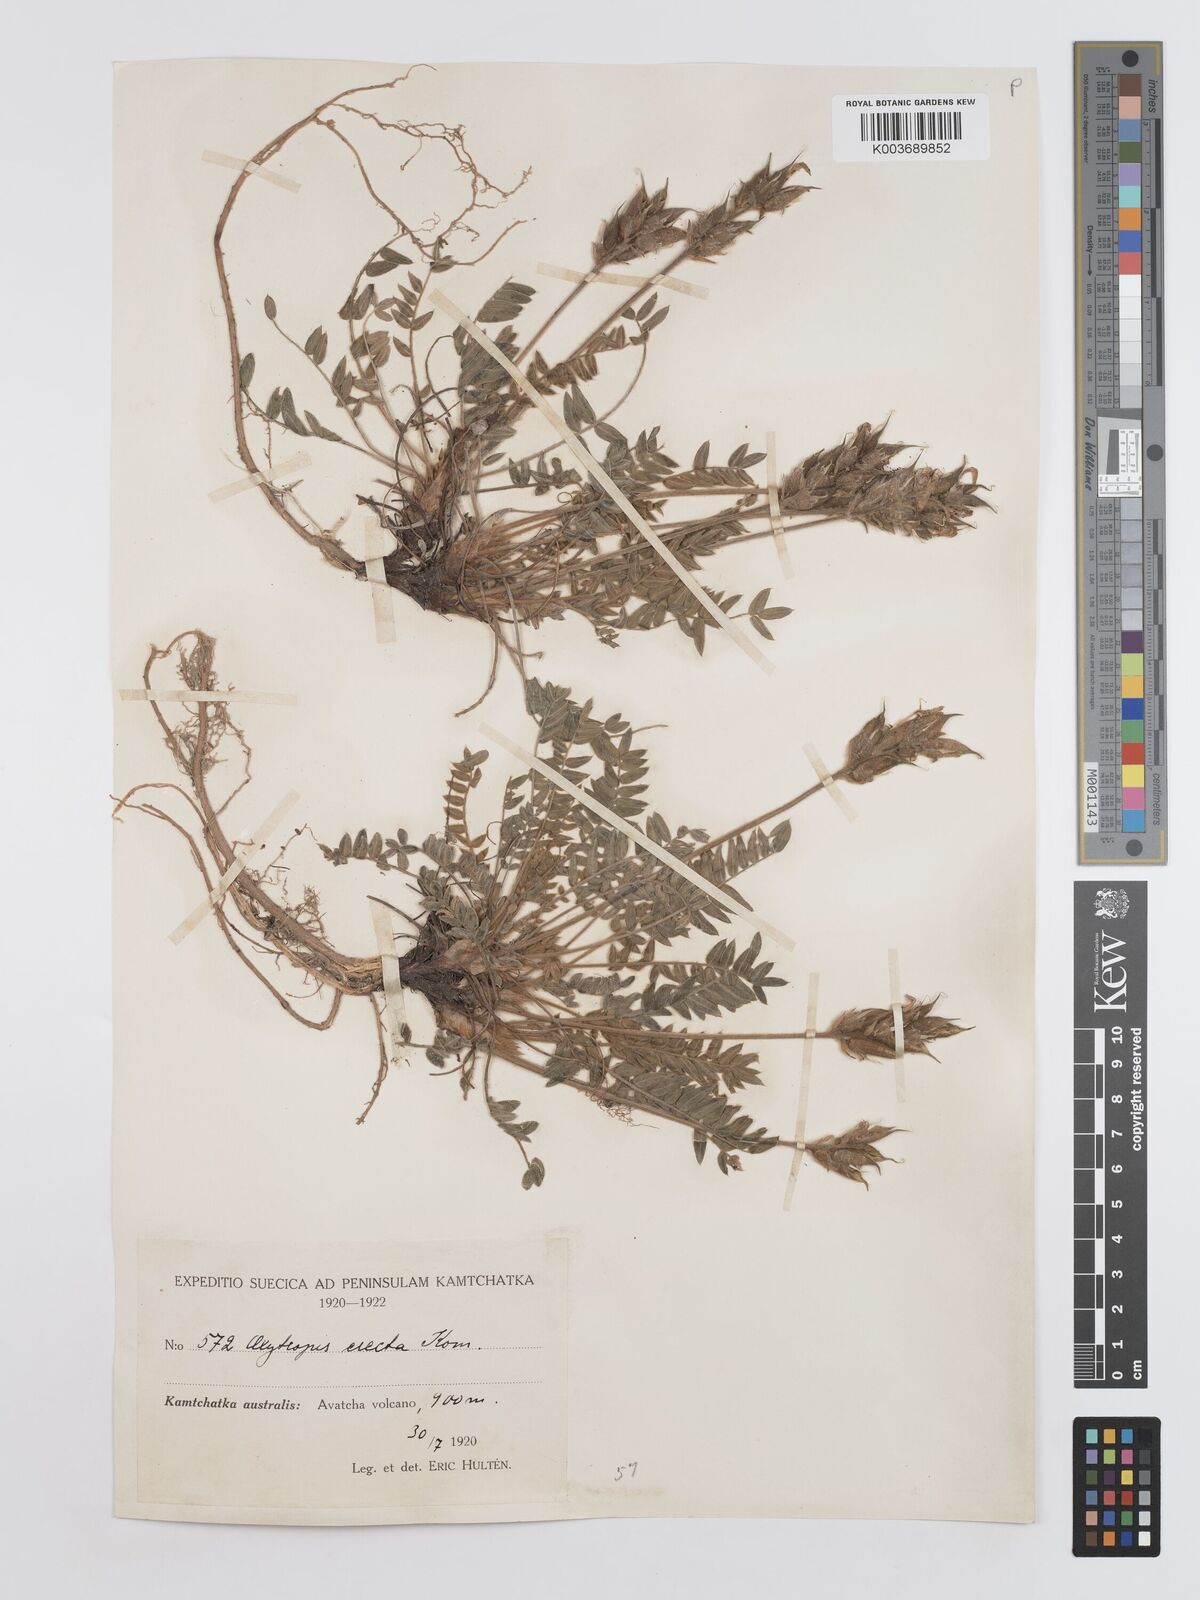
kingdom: Plantae
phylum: Tracheophyta
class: Magnoliopsida
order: Fabales
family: Fabaceae
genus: Oxytropis
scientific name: Oxytropis adamsiana
